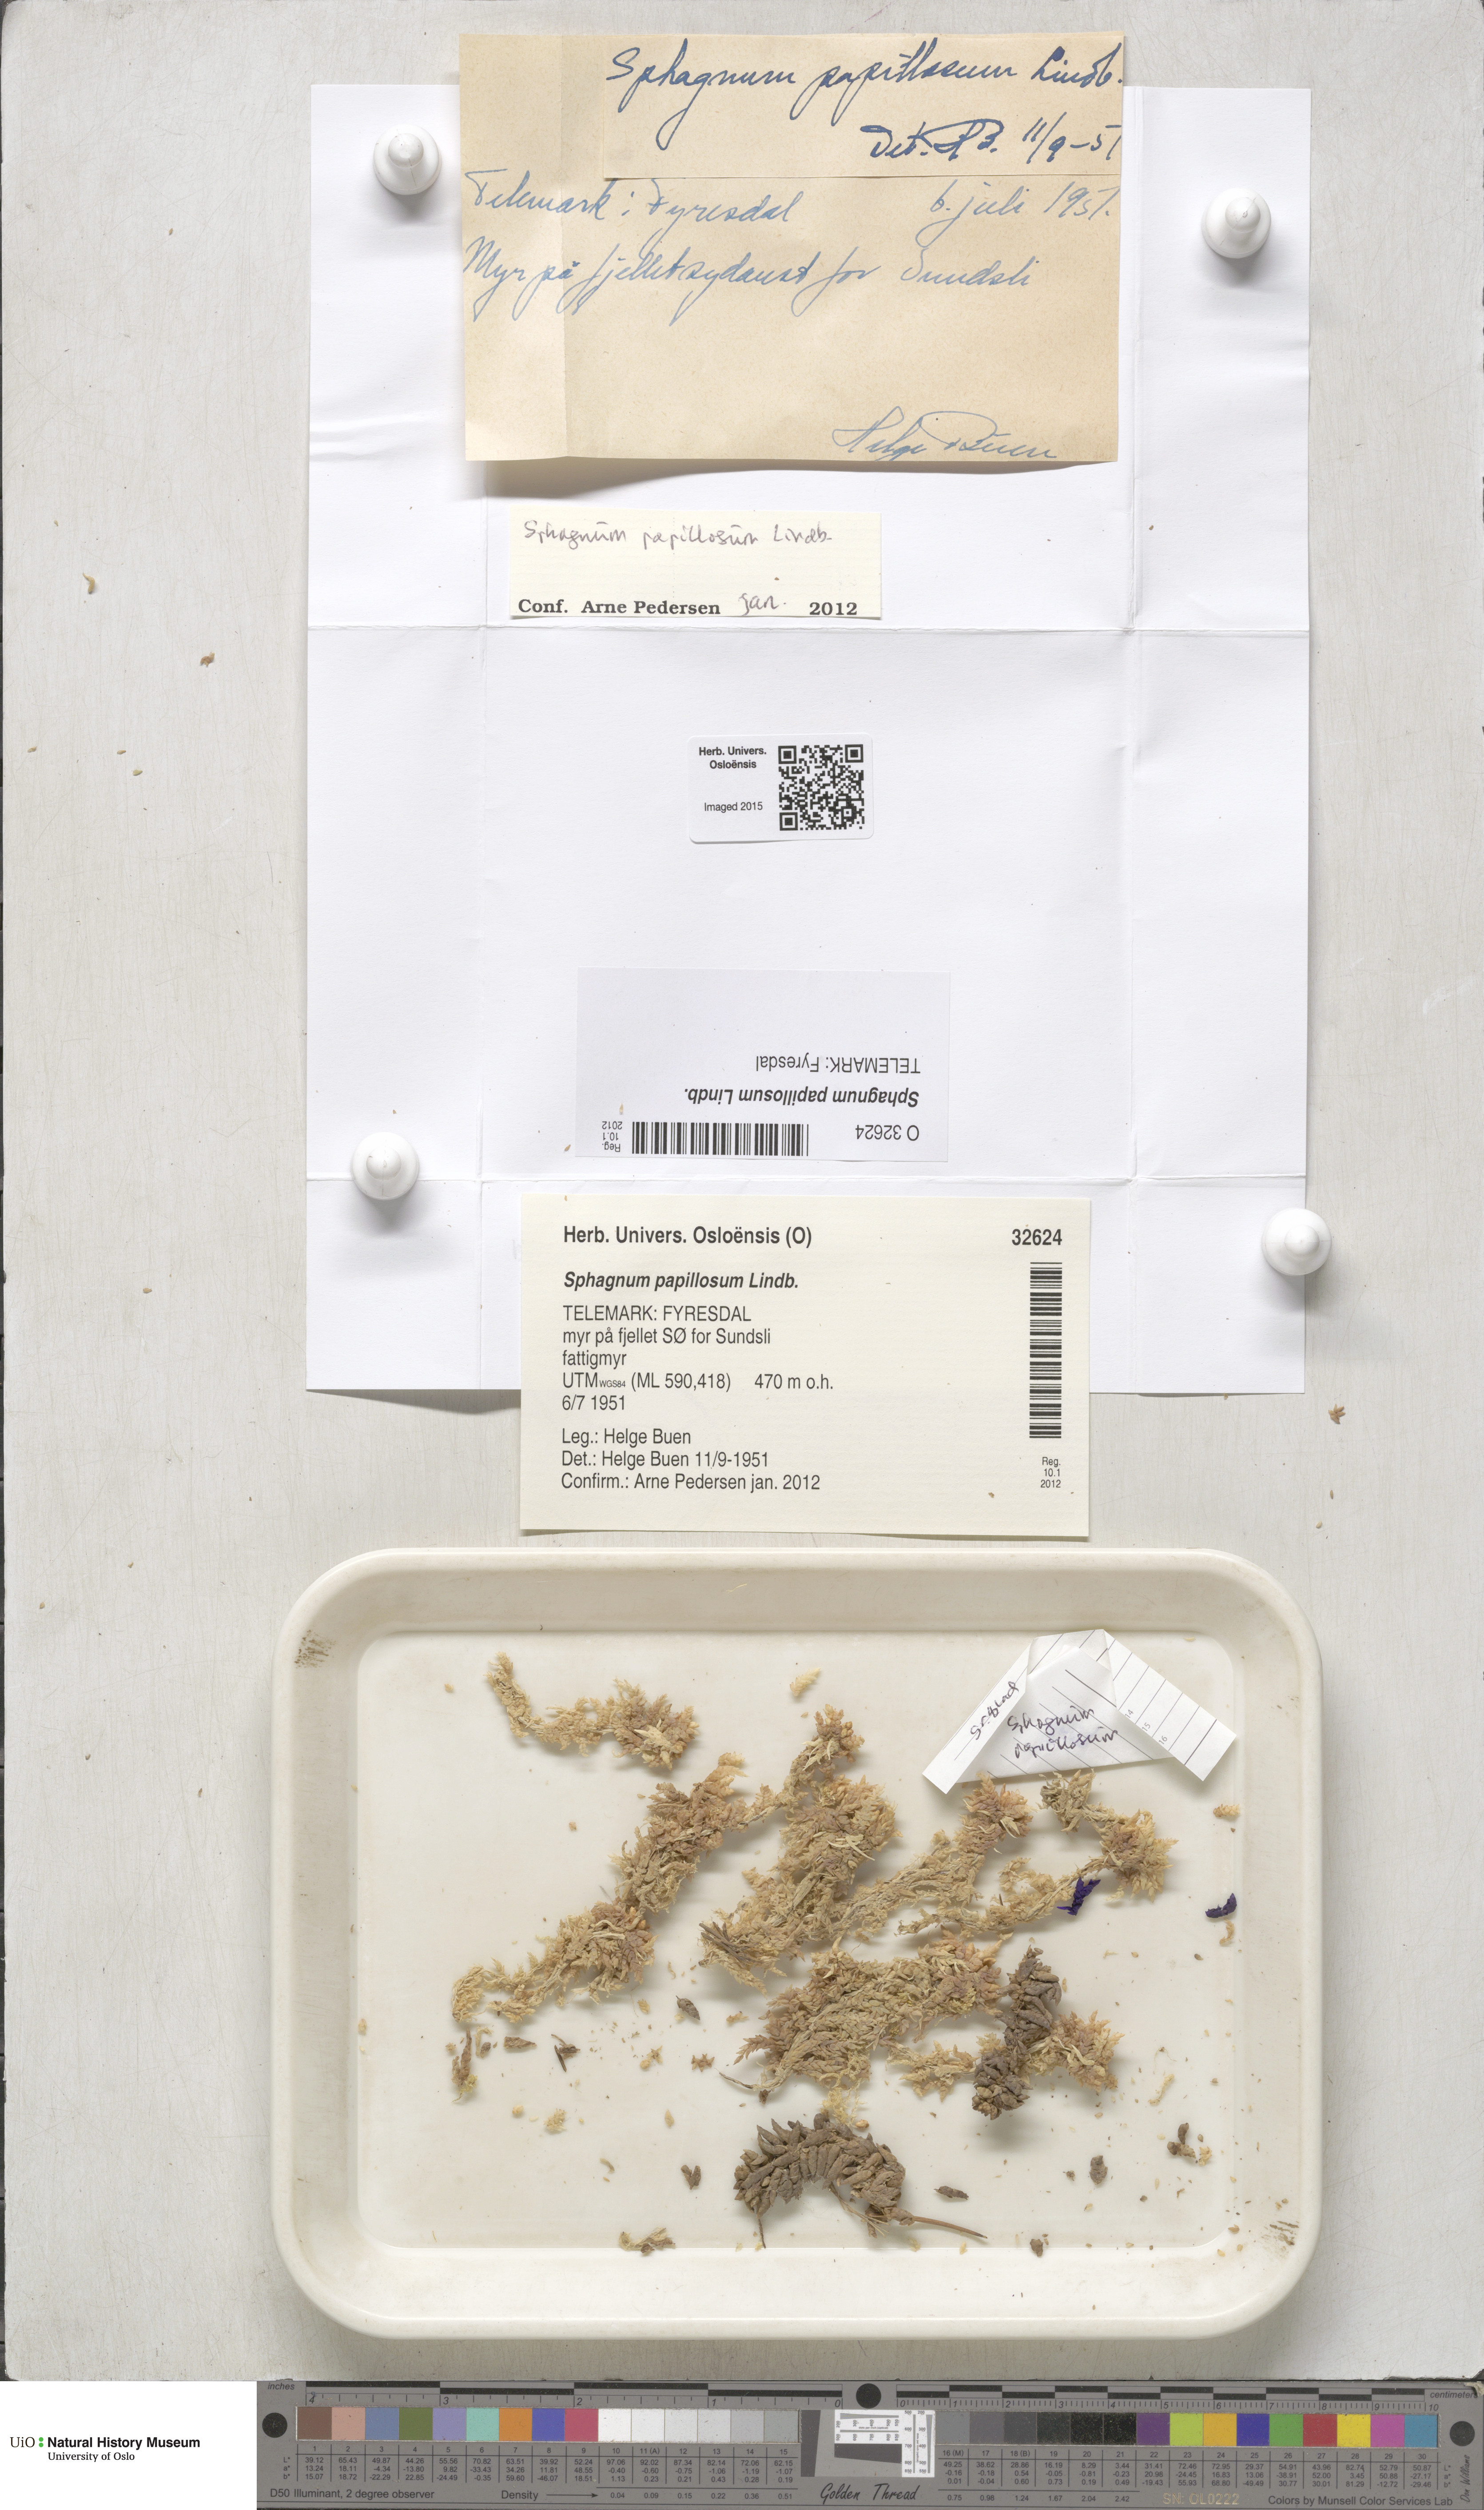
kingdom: Plantae
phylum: Bryophyta
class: Sphagnopsida
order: Sphagnales
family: Sphagnaceae
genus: Sphagnum
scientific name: Sphagnum papillosum
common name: Papillose peat moss
